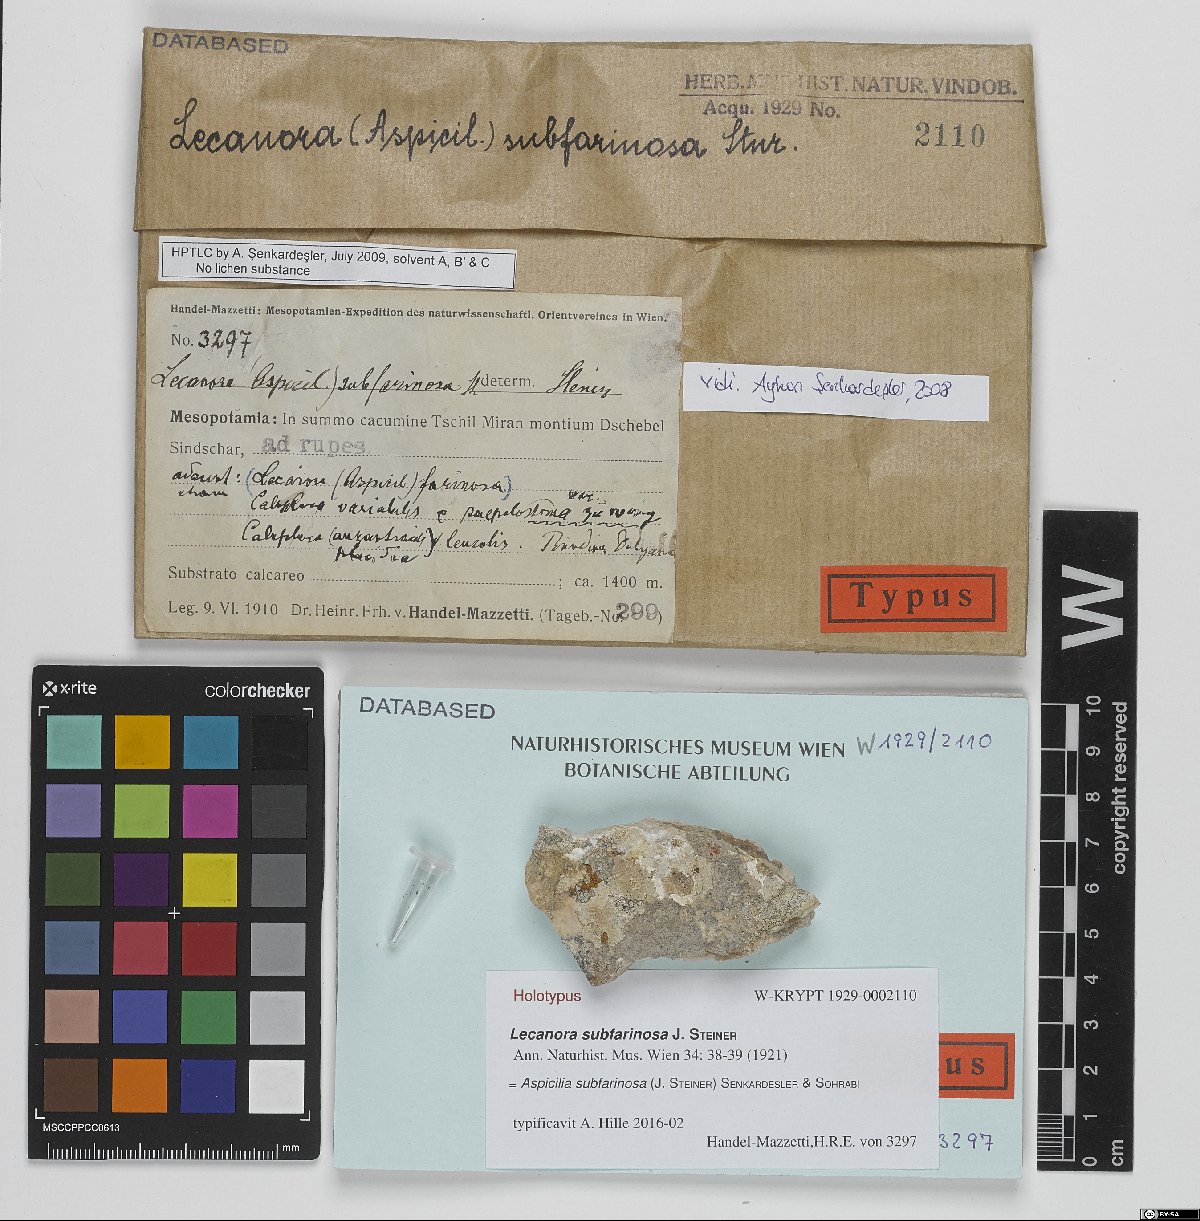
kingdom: Fungi
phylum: Ascomycota
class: Lecanoromycetes
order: Pertusariales
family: Megasporaceae
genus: Aspicilia
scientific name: Aspicilia subfarinosa
